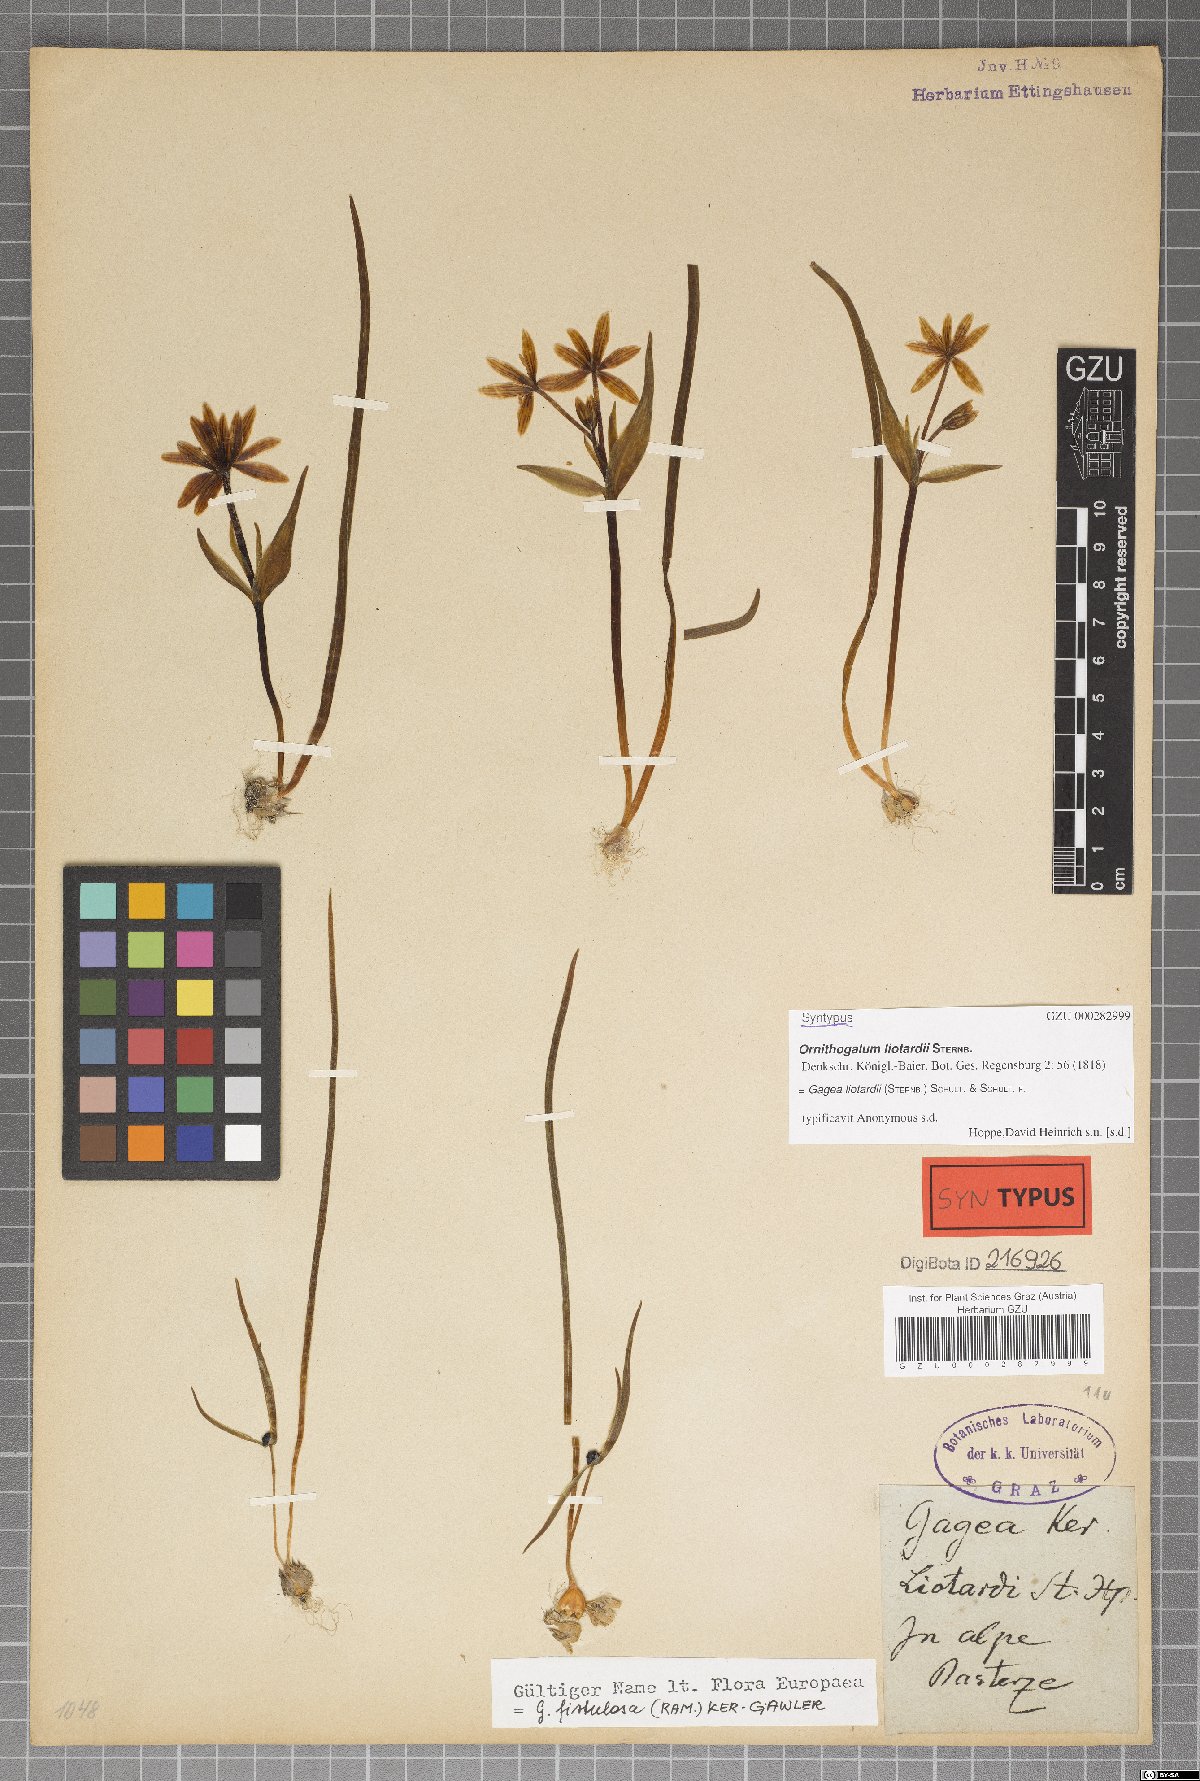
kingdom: Plantae
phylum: Tracheophyta
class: Liliopsida
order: Liliales
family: Liliaceae
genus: Gagea
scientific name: Gagea fragifera
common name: Lily
